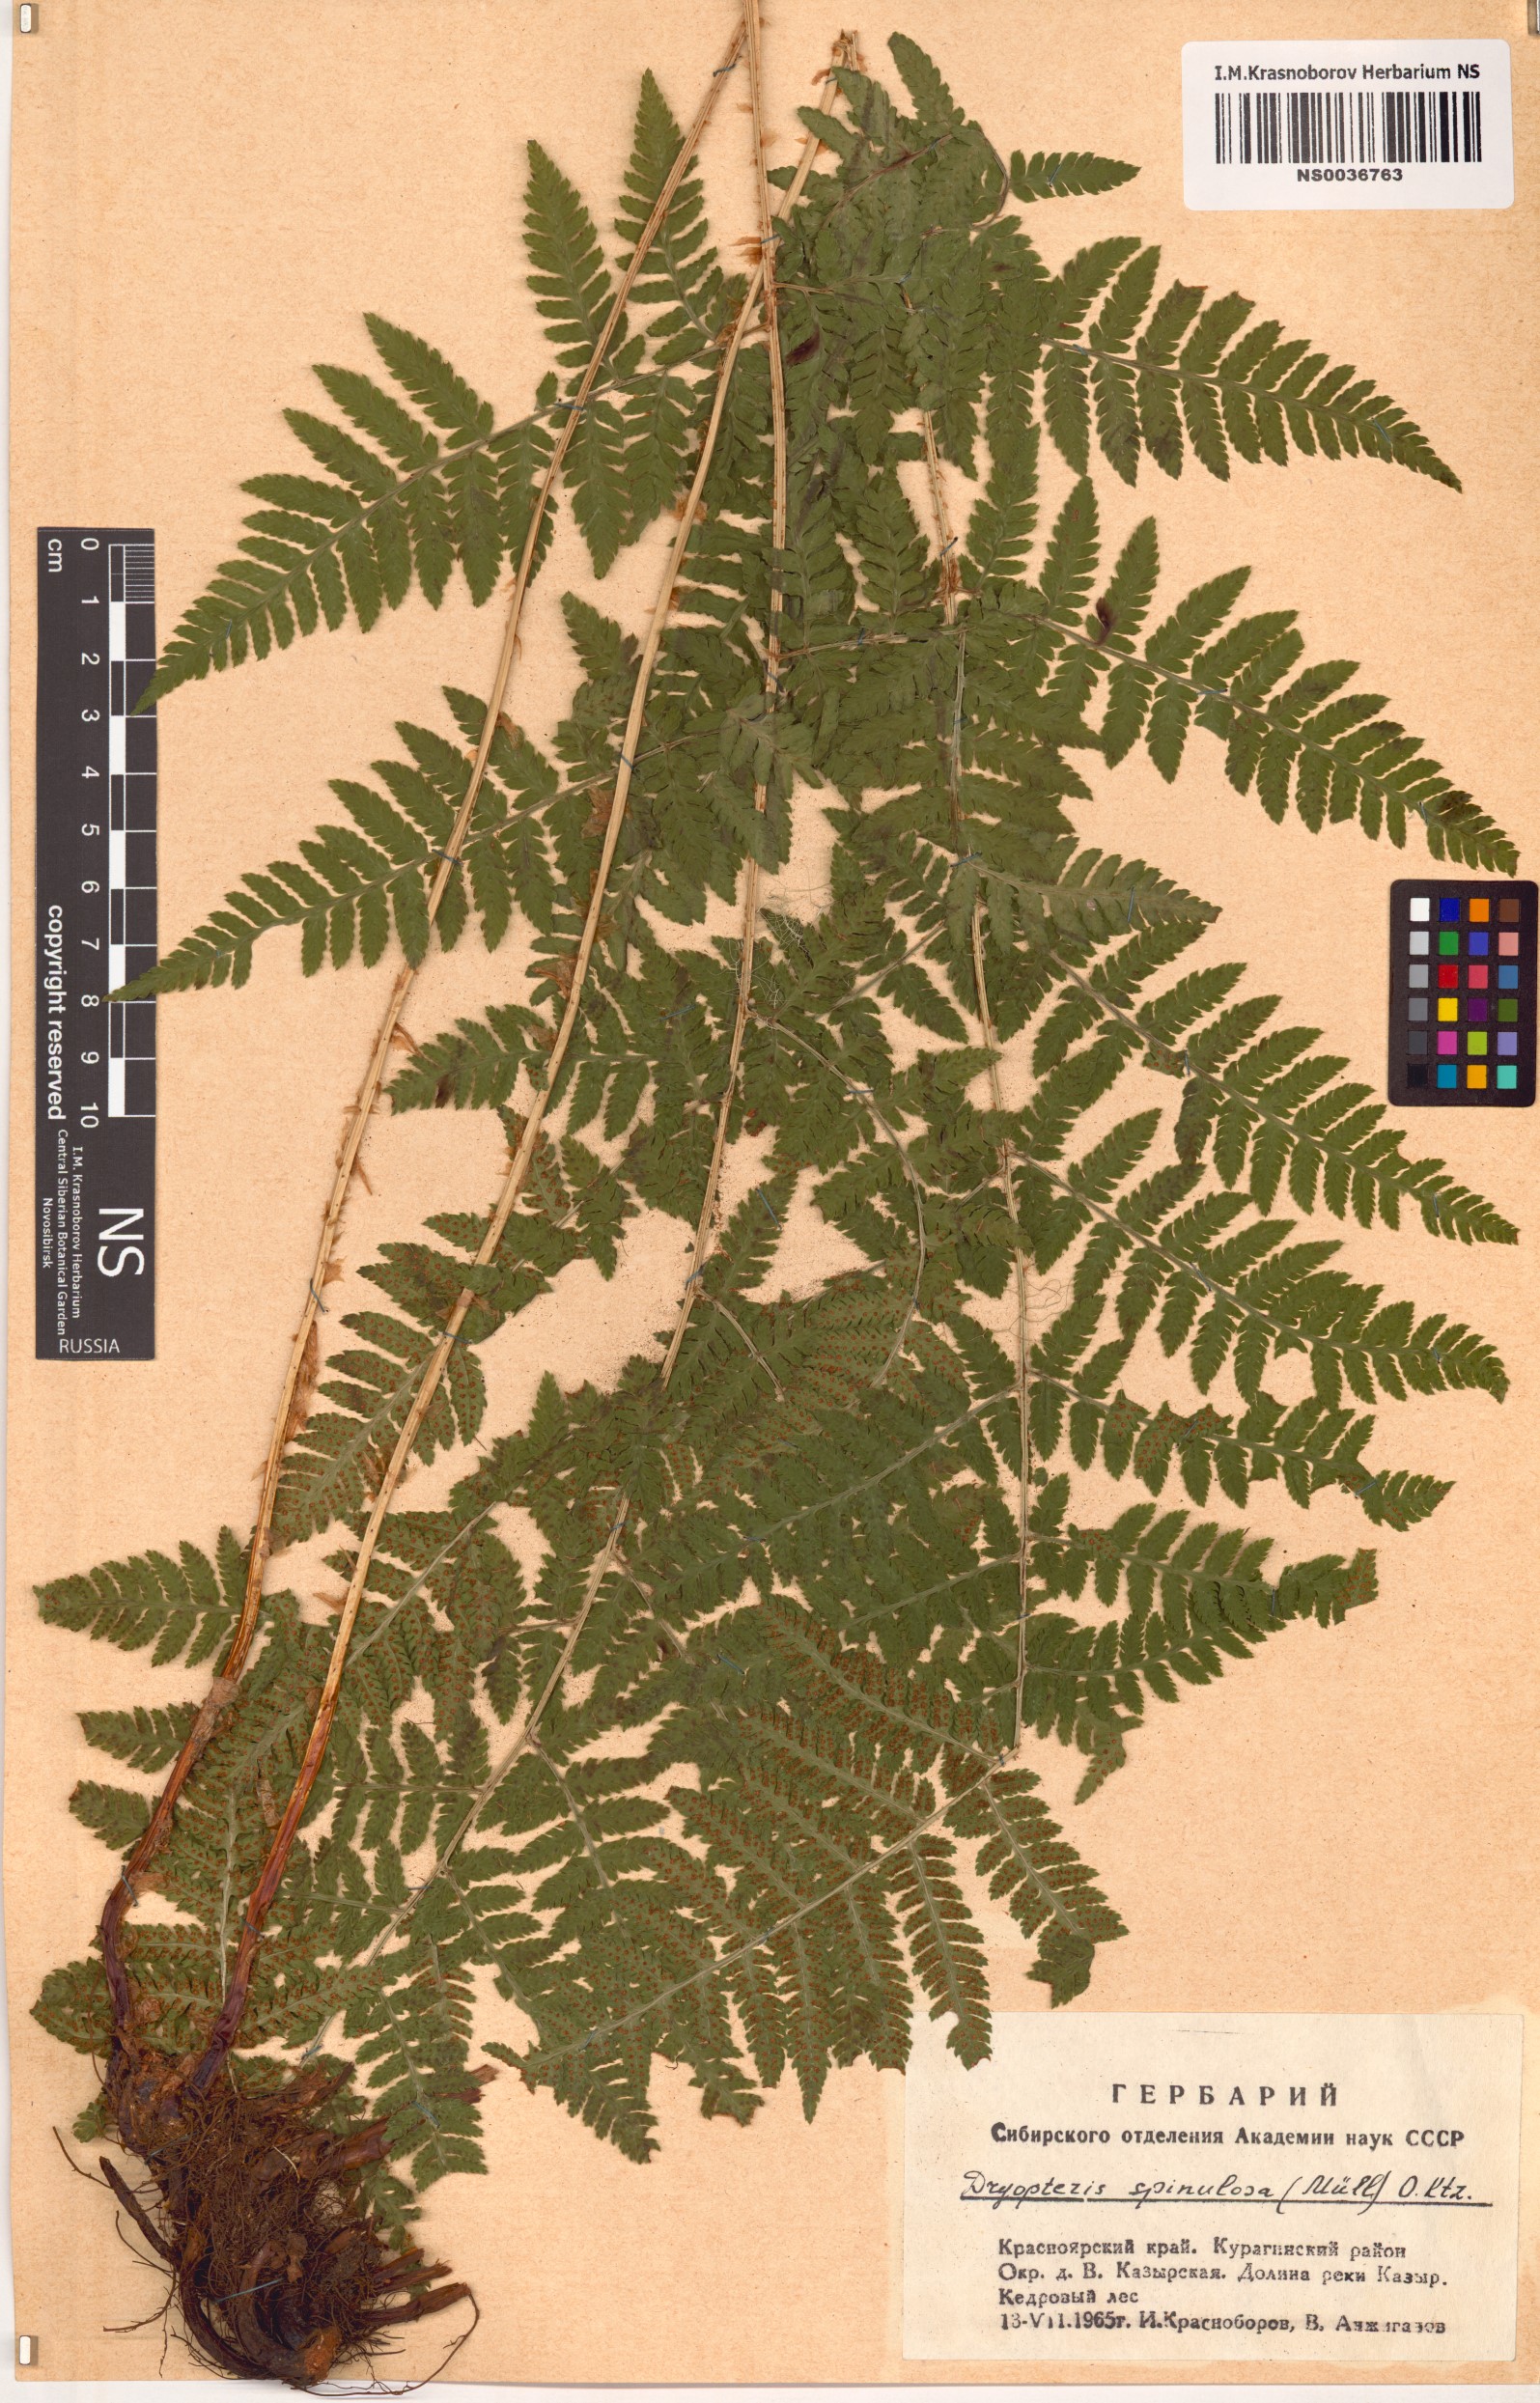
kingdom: Plantae
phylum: Tracheophyta
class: Polypodiopsida
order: Polypodiales
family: Dryopteridaceae
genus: Dryopteris
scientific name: Dryopteris carthusiana
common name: Narrow buckler-fern
